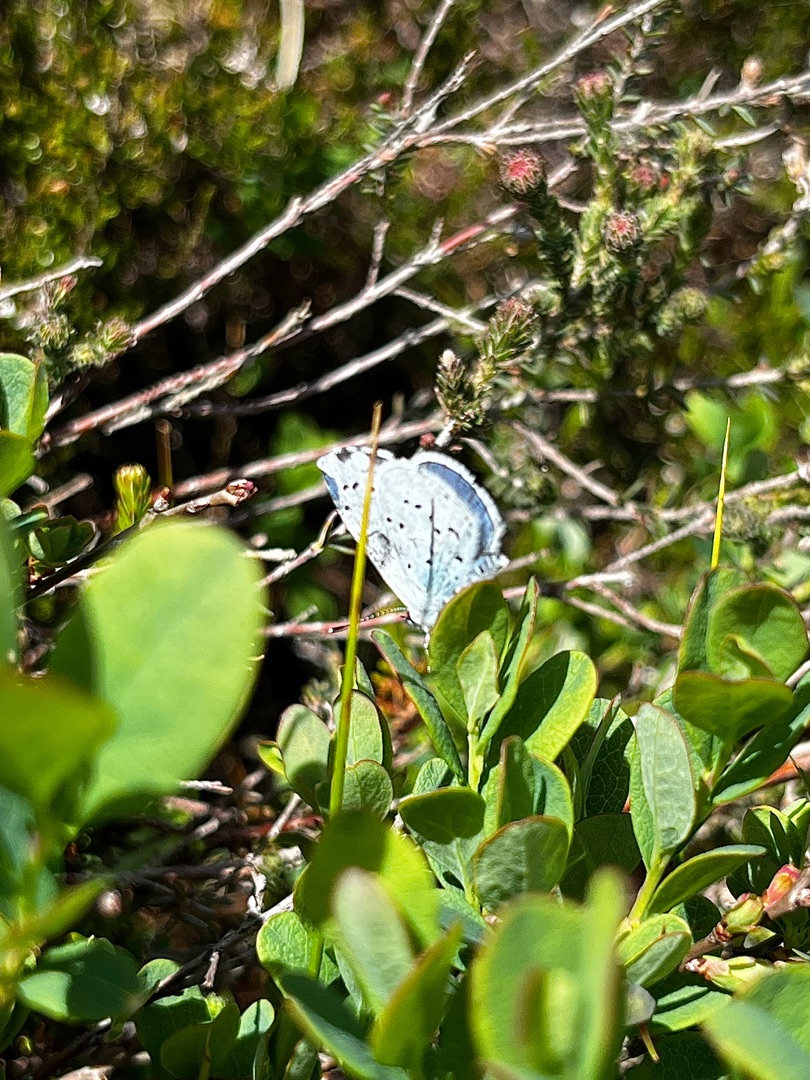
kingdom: Animalia
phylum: Arthropoda
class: Insecta
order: Lepidoptera
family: Lycaenidae
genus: Celastrina
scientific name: Celastrina argiolus
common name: Skovblåfugl
